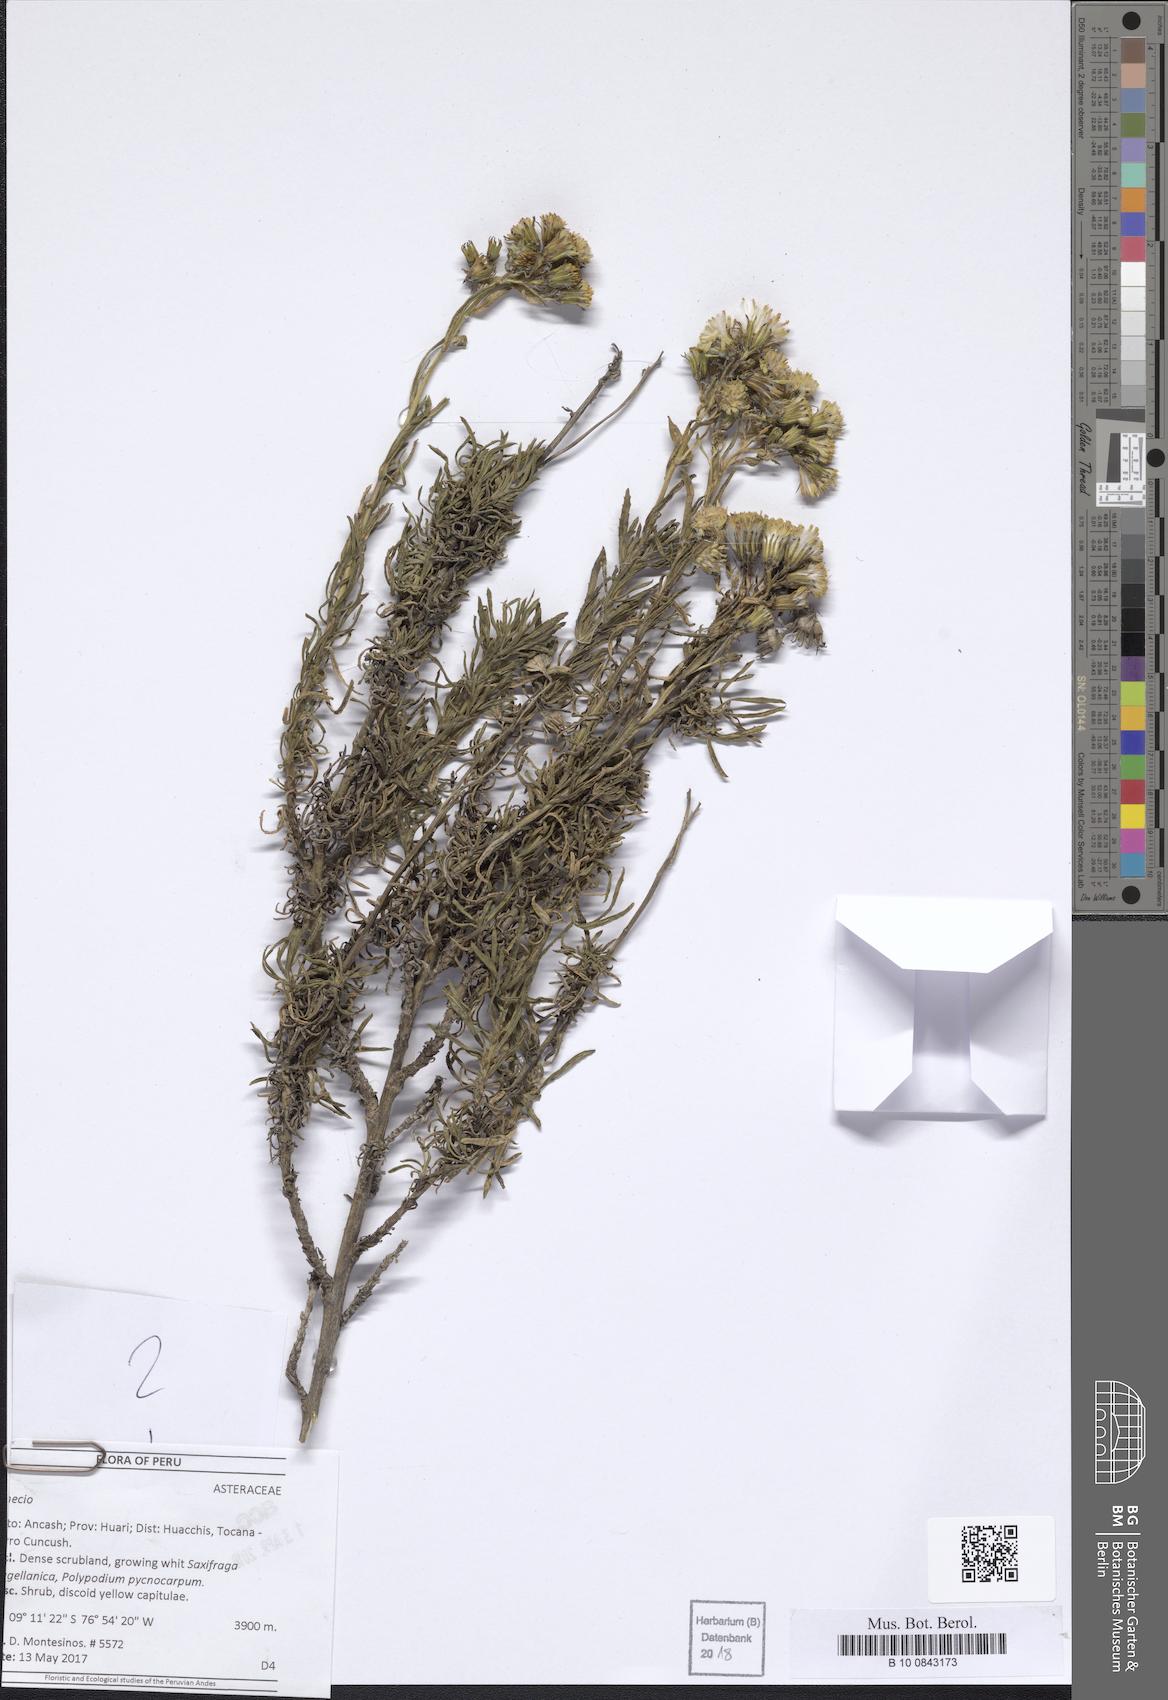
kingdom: Plantae
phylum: Tracheophyta
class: Magnoliopsida
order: Asterales
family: Asteraceae
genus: Senecio
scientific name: Senecio collinus
